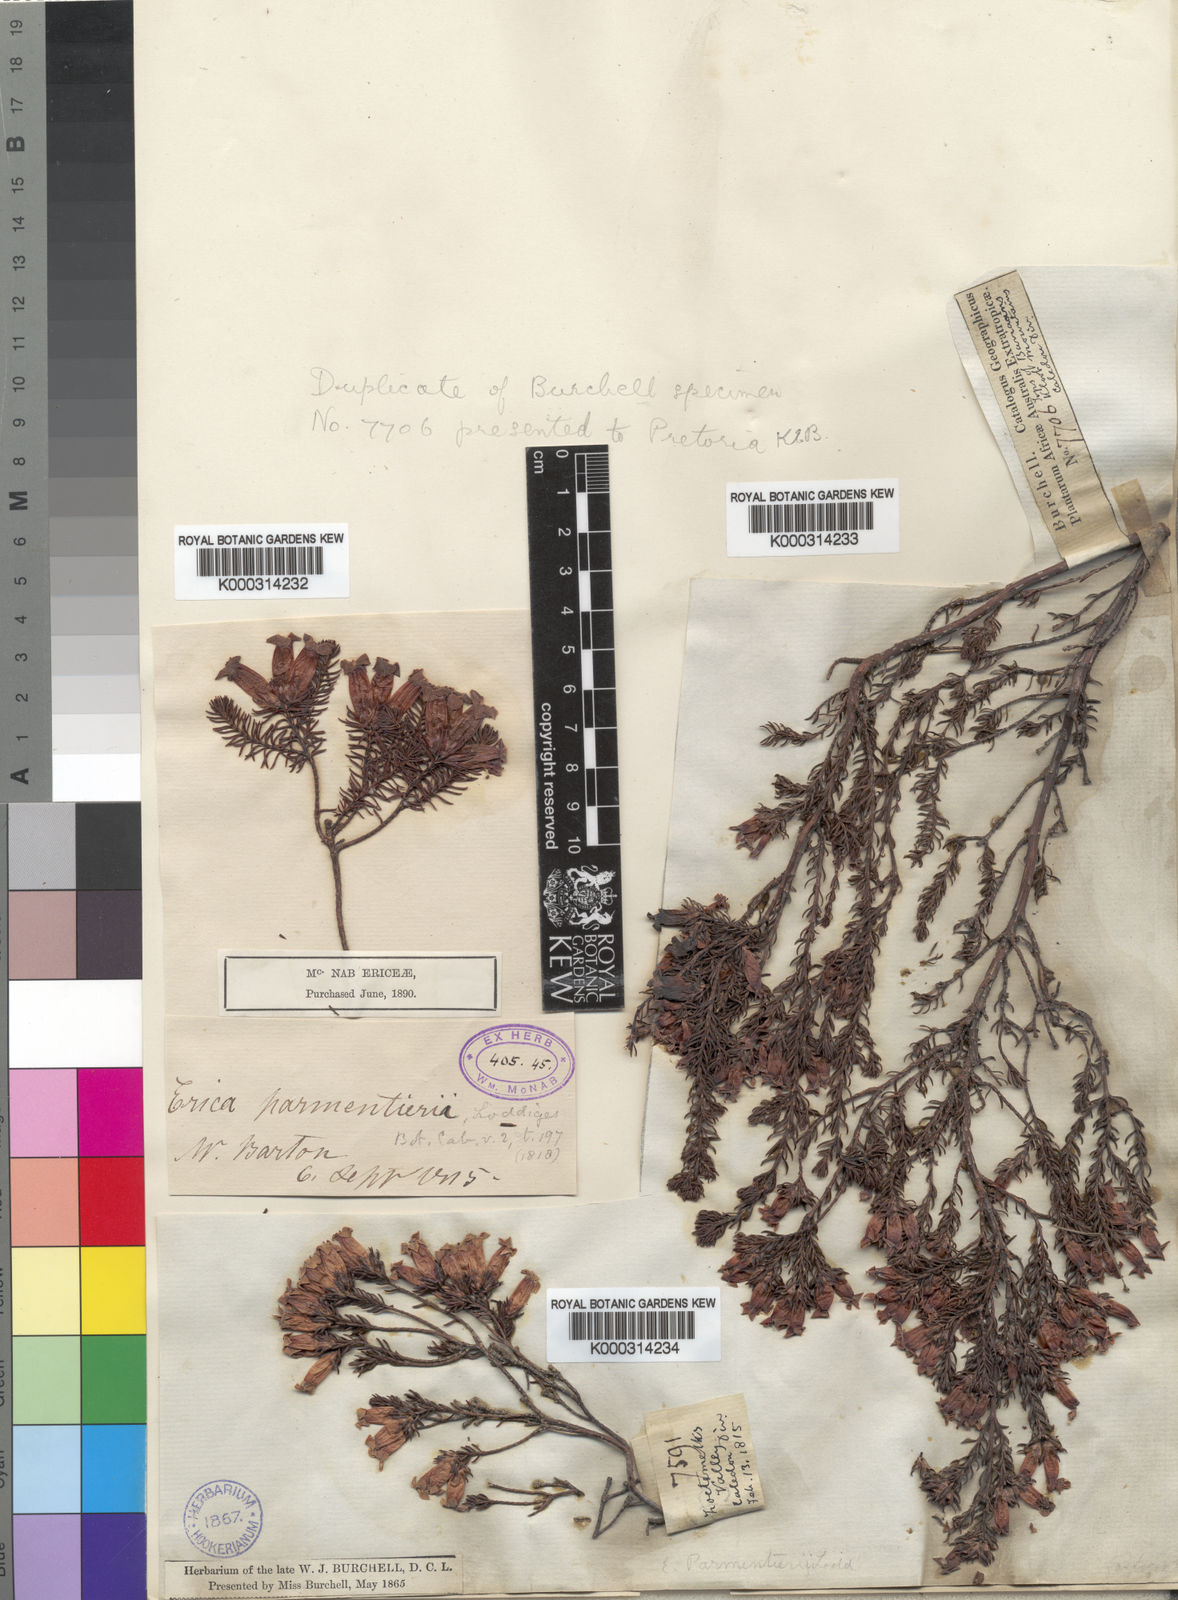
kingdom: Plantae
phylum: Tracheophyta
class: Magnoliopsida
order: Ericales
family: Ericaceae
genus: Erica
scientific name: Erica
